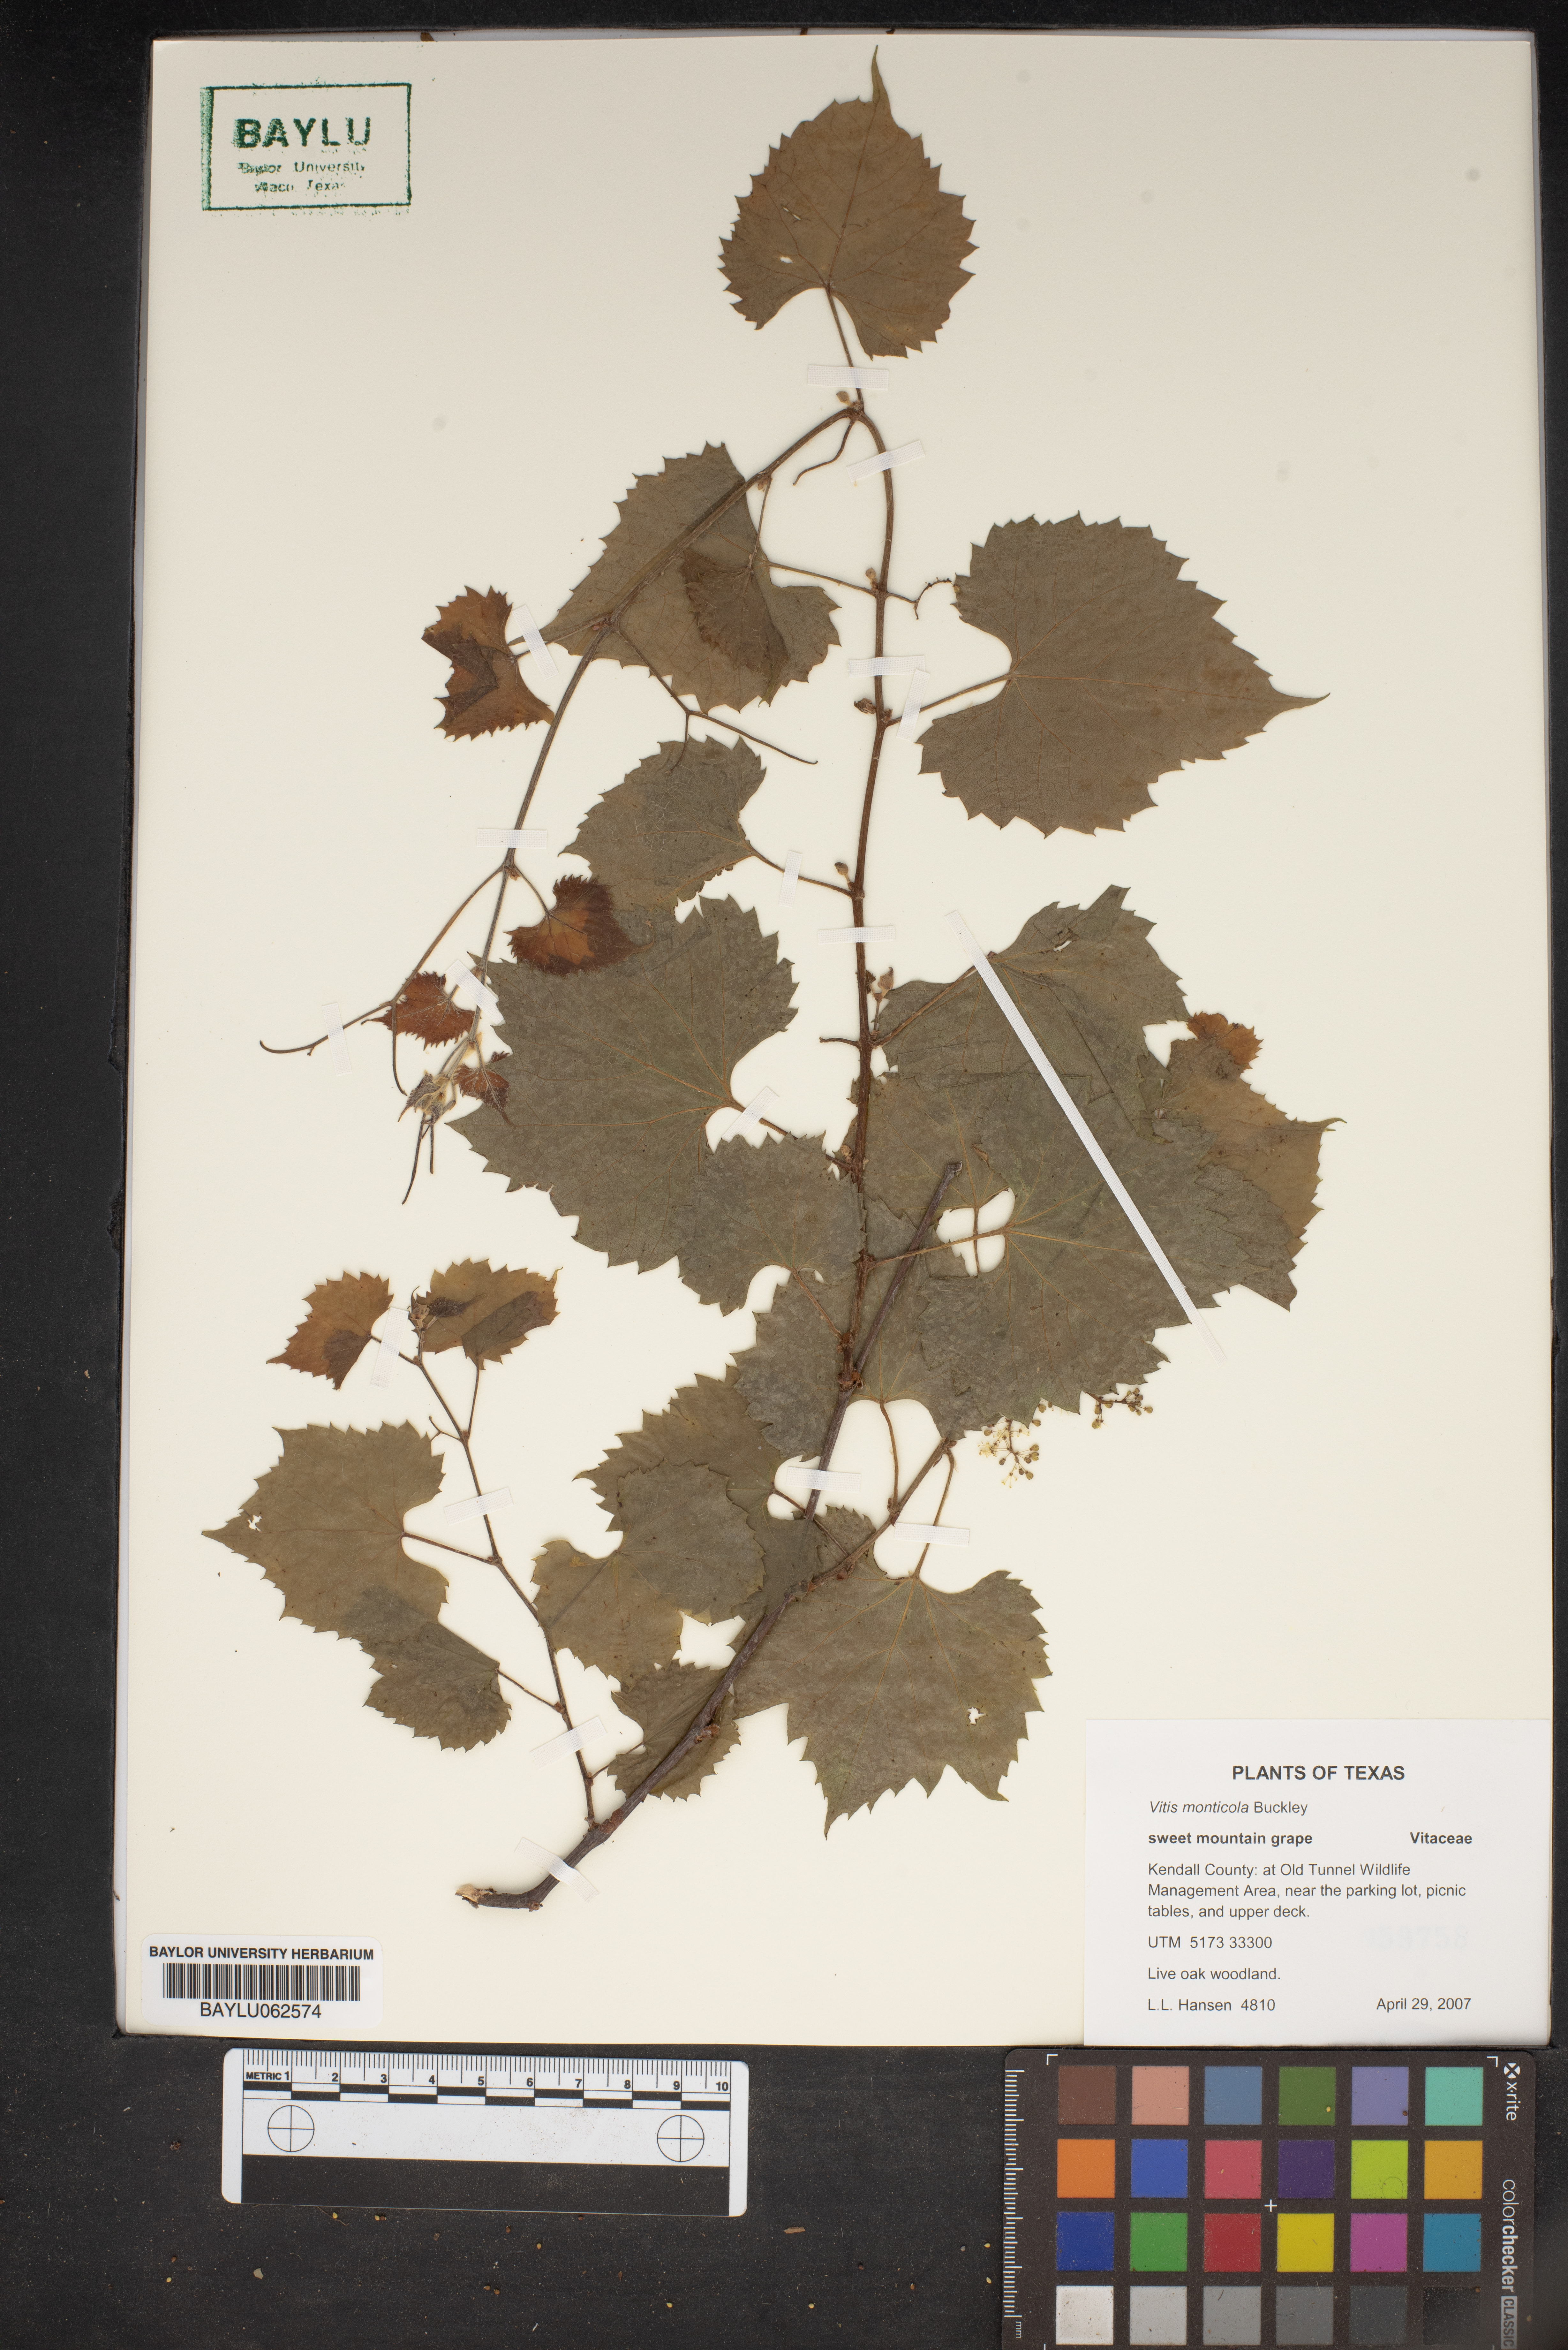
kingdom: Plantae
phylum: Tracheophyta
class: Magnoliopsida
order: Vitales
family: Vitaceae
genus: Vitis
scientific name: Vitis monticola
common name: Mountain grape
